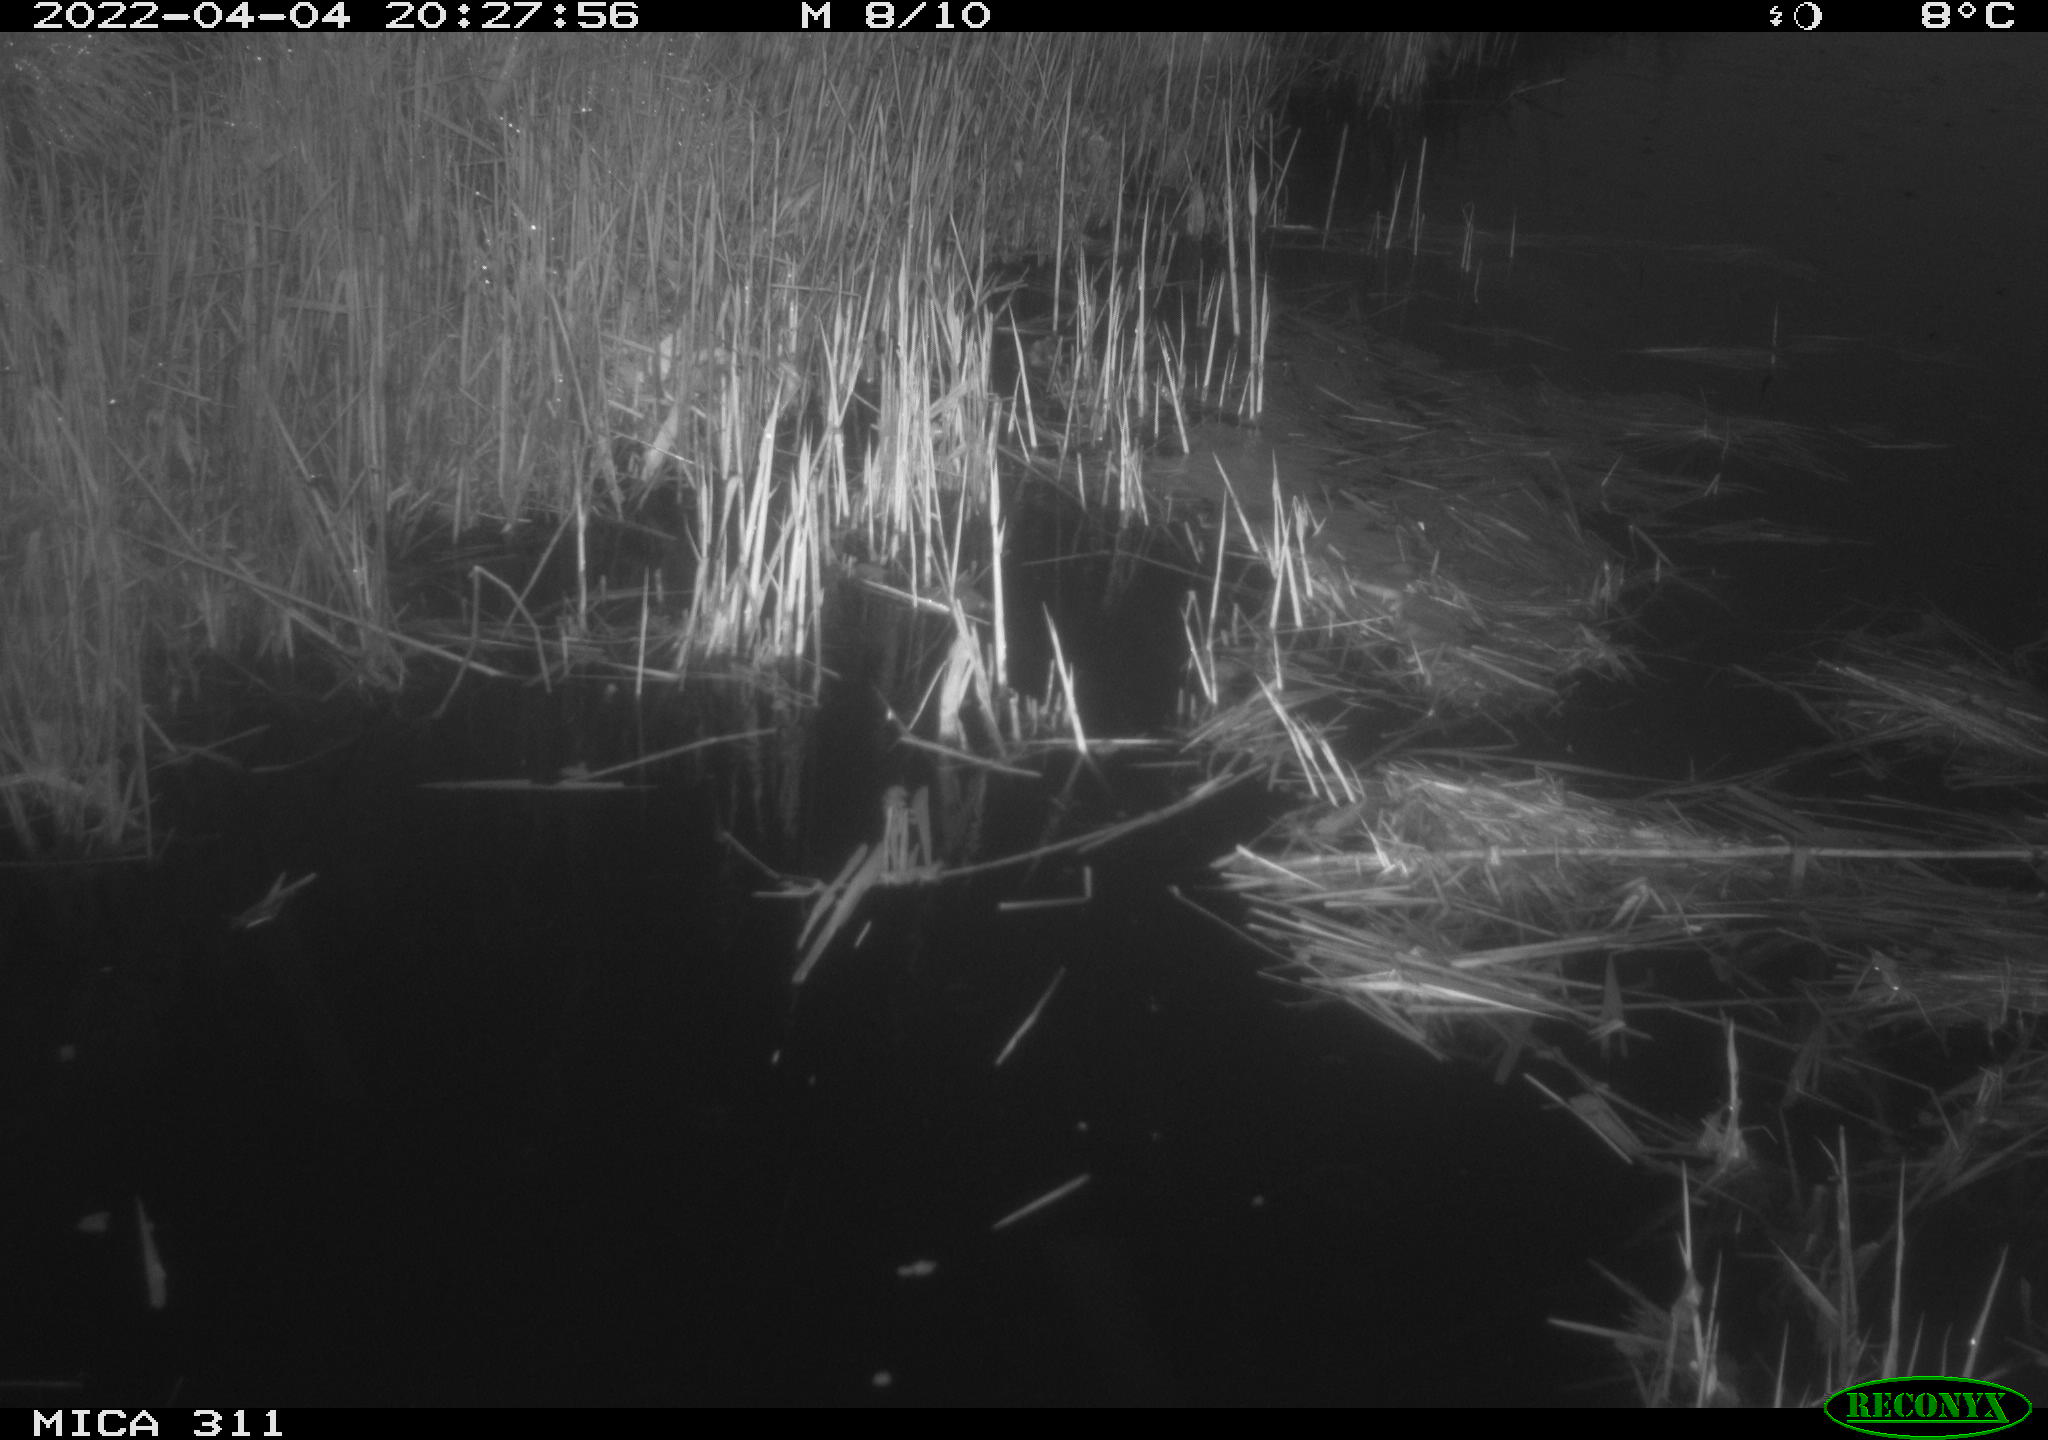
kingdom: Animalia
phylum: Chordata
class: Aves
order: Gruiformes
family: Rallidae
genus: Gallinula
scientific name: Gallinula chloropus
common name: Common moorhen
